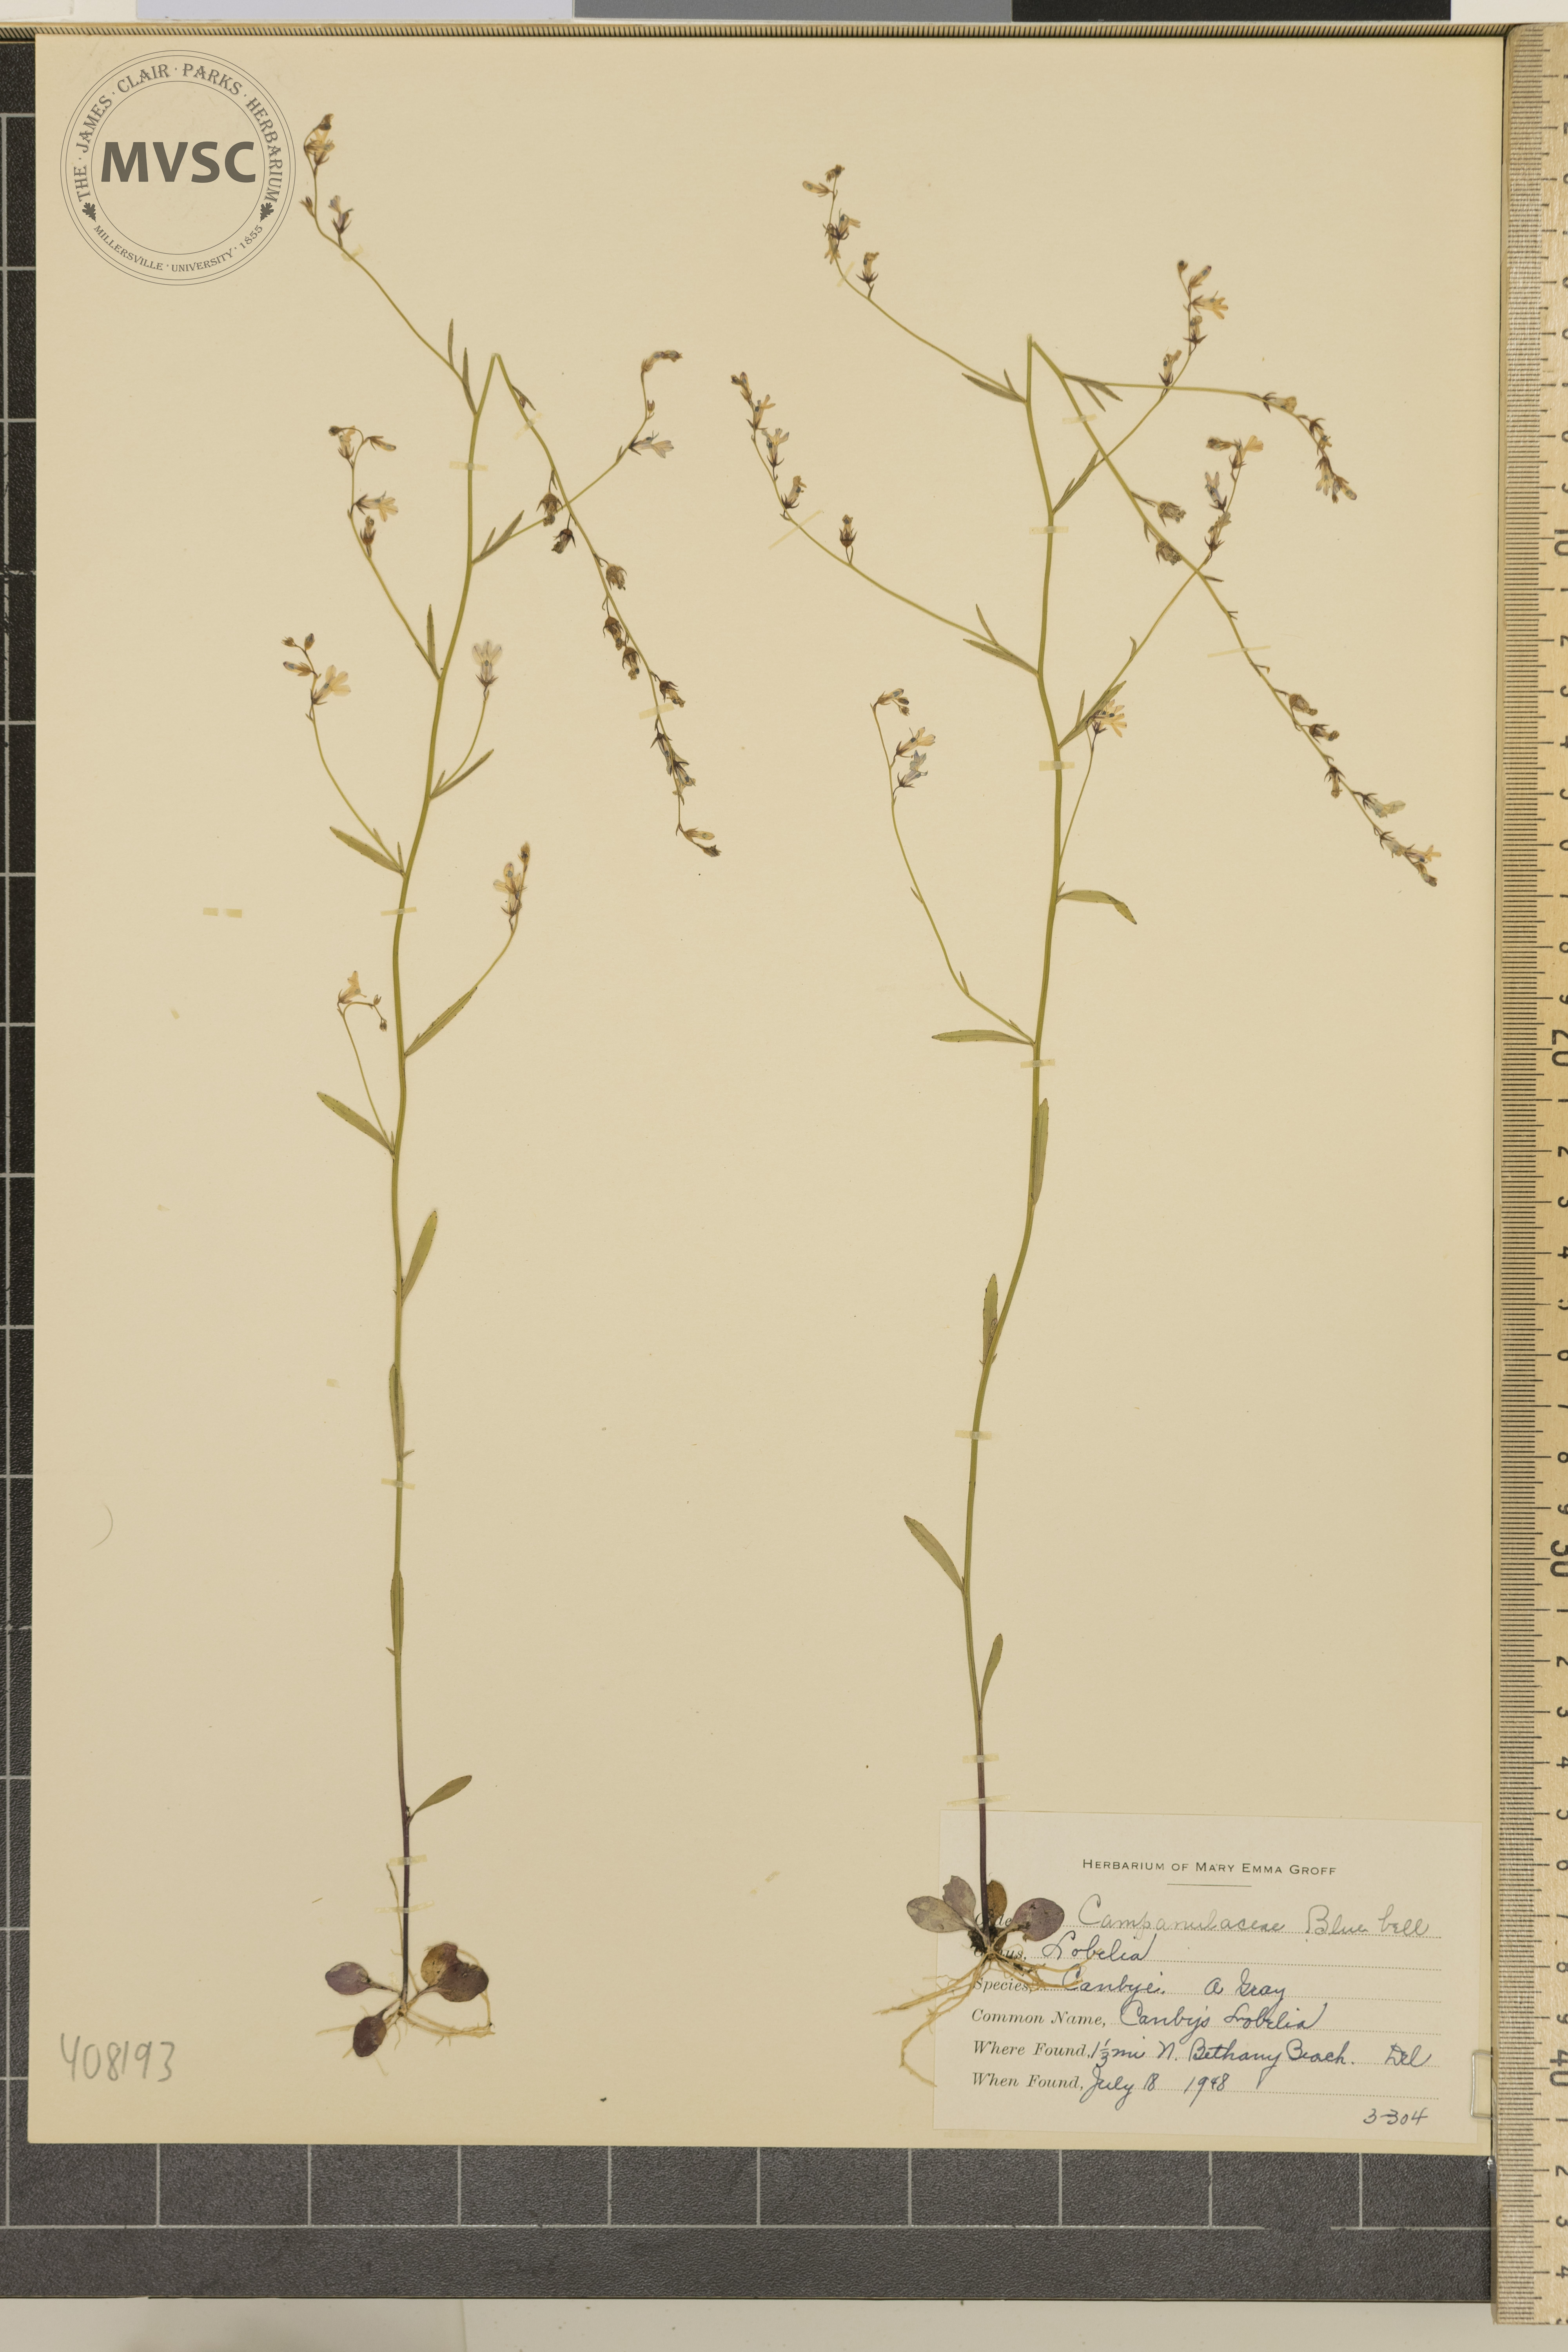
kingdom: Plantae
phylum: Tracheophyta
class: Magnoliopsida
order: Asterales
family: Campanulaceae
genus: Lobelia
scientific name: Lobelia canbyi
